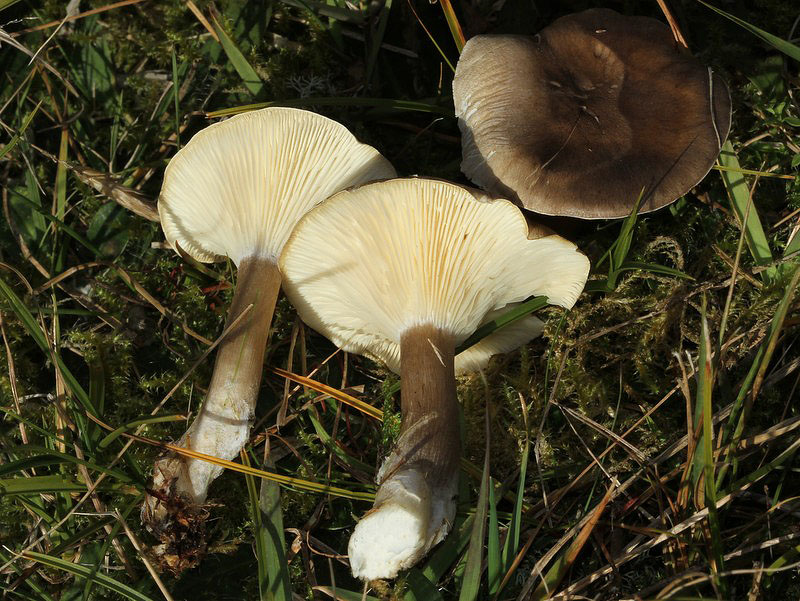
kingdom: Fungi
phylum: Basidiomycota
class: Agaricomycetes
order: Agaricales
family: Hygrophoraceae
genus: Ampulloclitocybe
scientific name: Ampulloclitocybe clavipes
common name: køllefod
